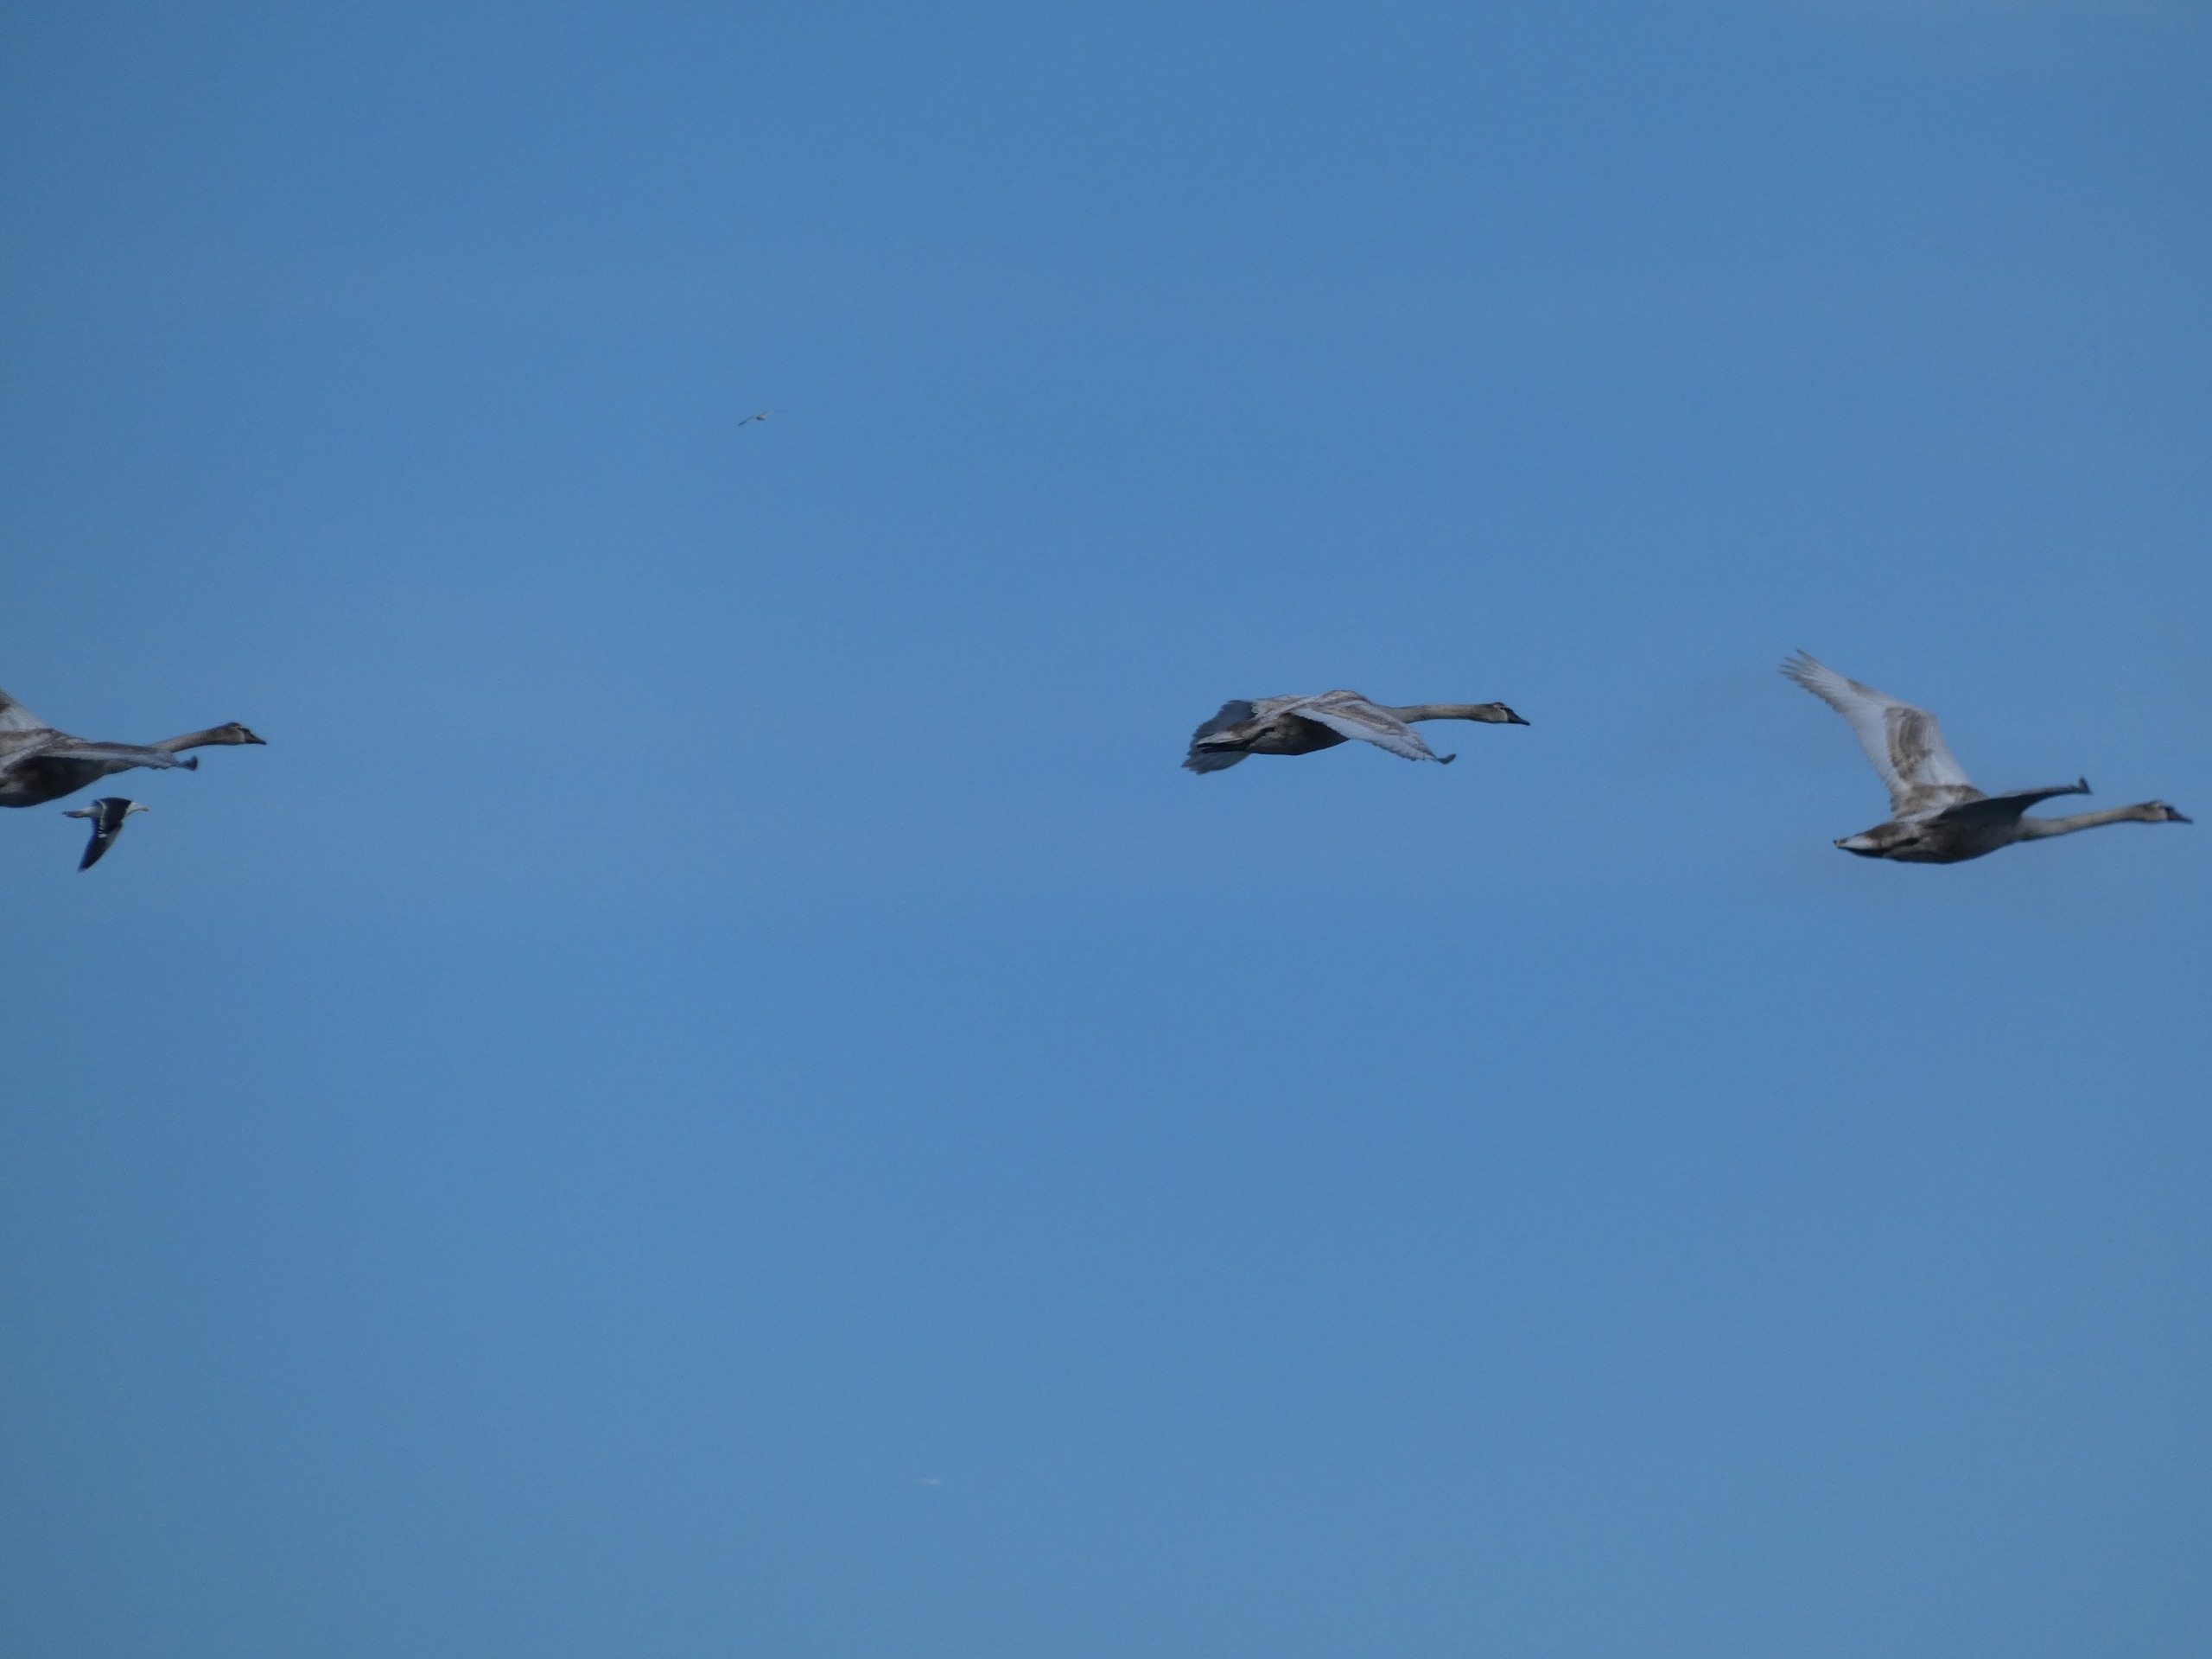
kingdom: Animalia
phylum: Chordata
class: Aves
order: Charadriiformes
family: Laridae
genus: Larus
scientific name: Larus marinus
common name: Svartbag
